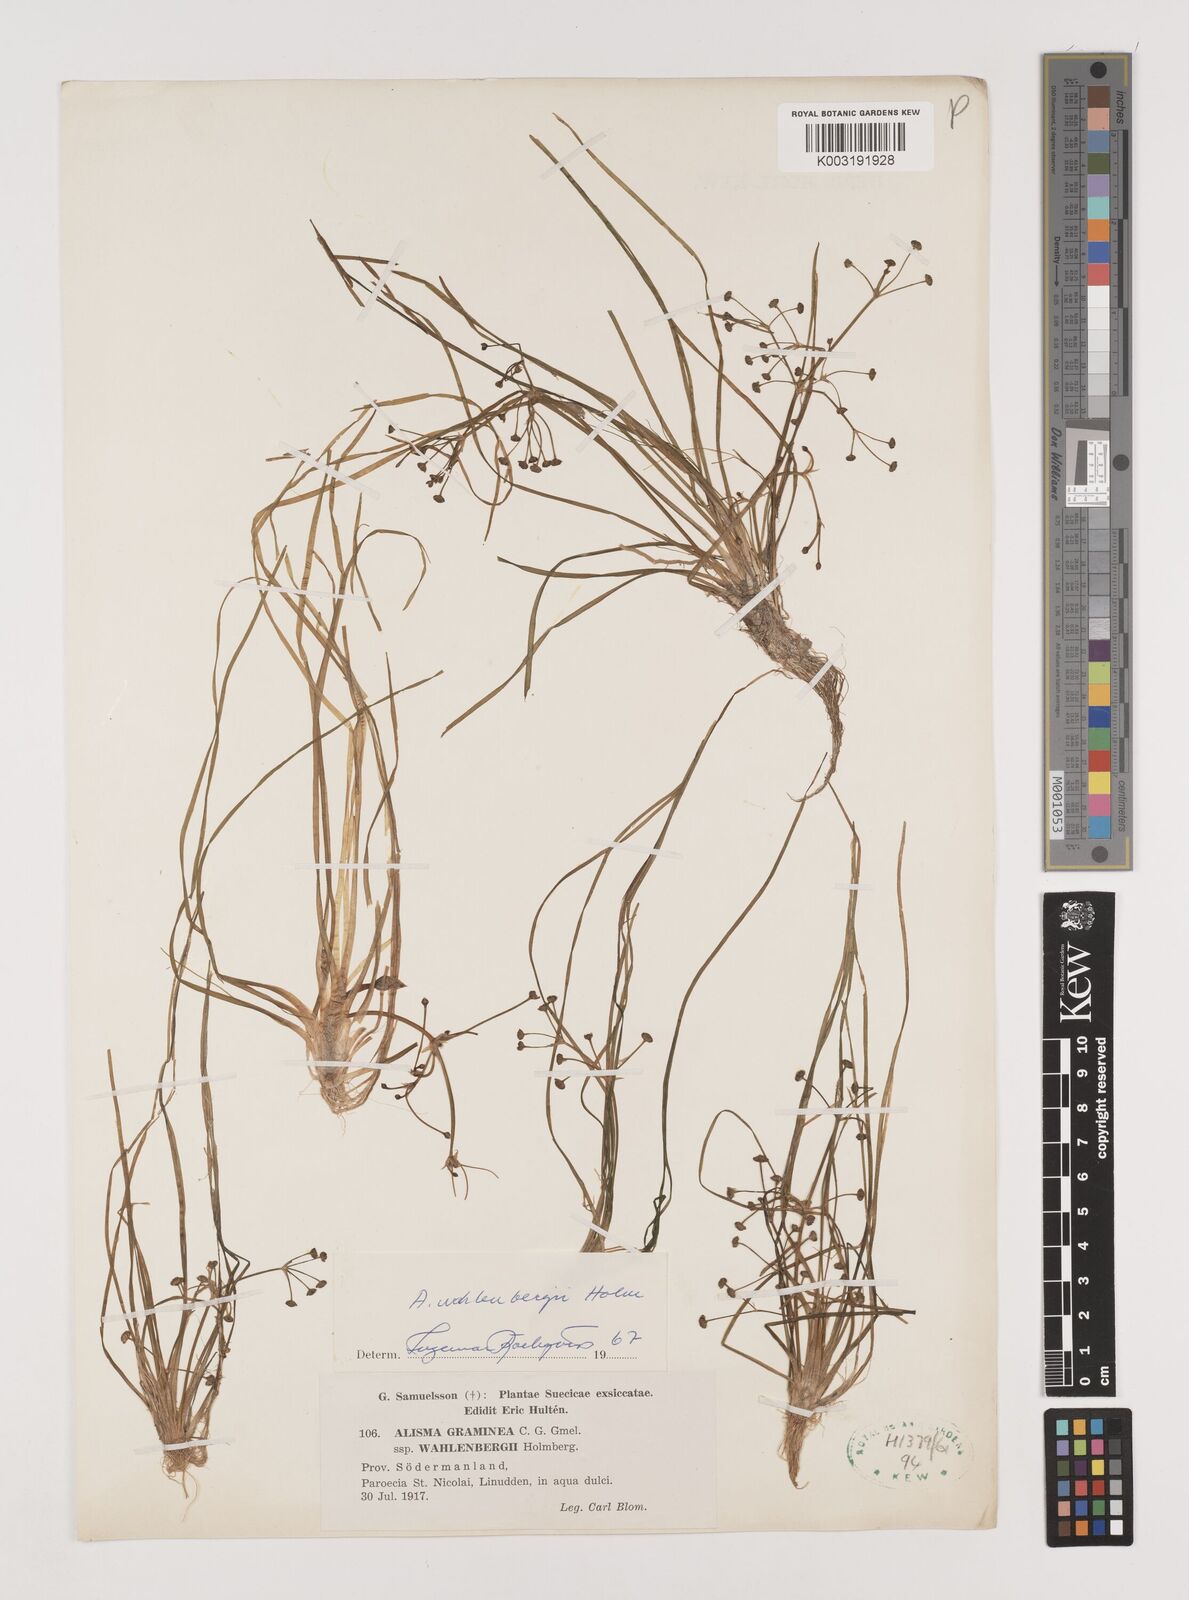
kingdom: Plantae
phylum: Tracheophyta
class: Liliopsida
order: Alismatales
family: Alismataceae
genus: Alisma
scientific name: Alisma wahlenbergii
